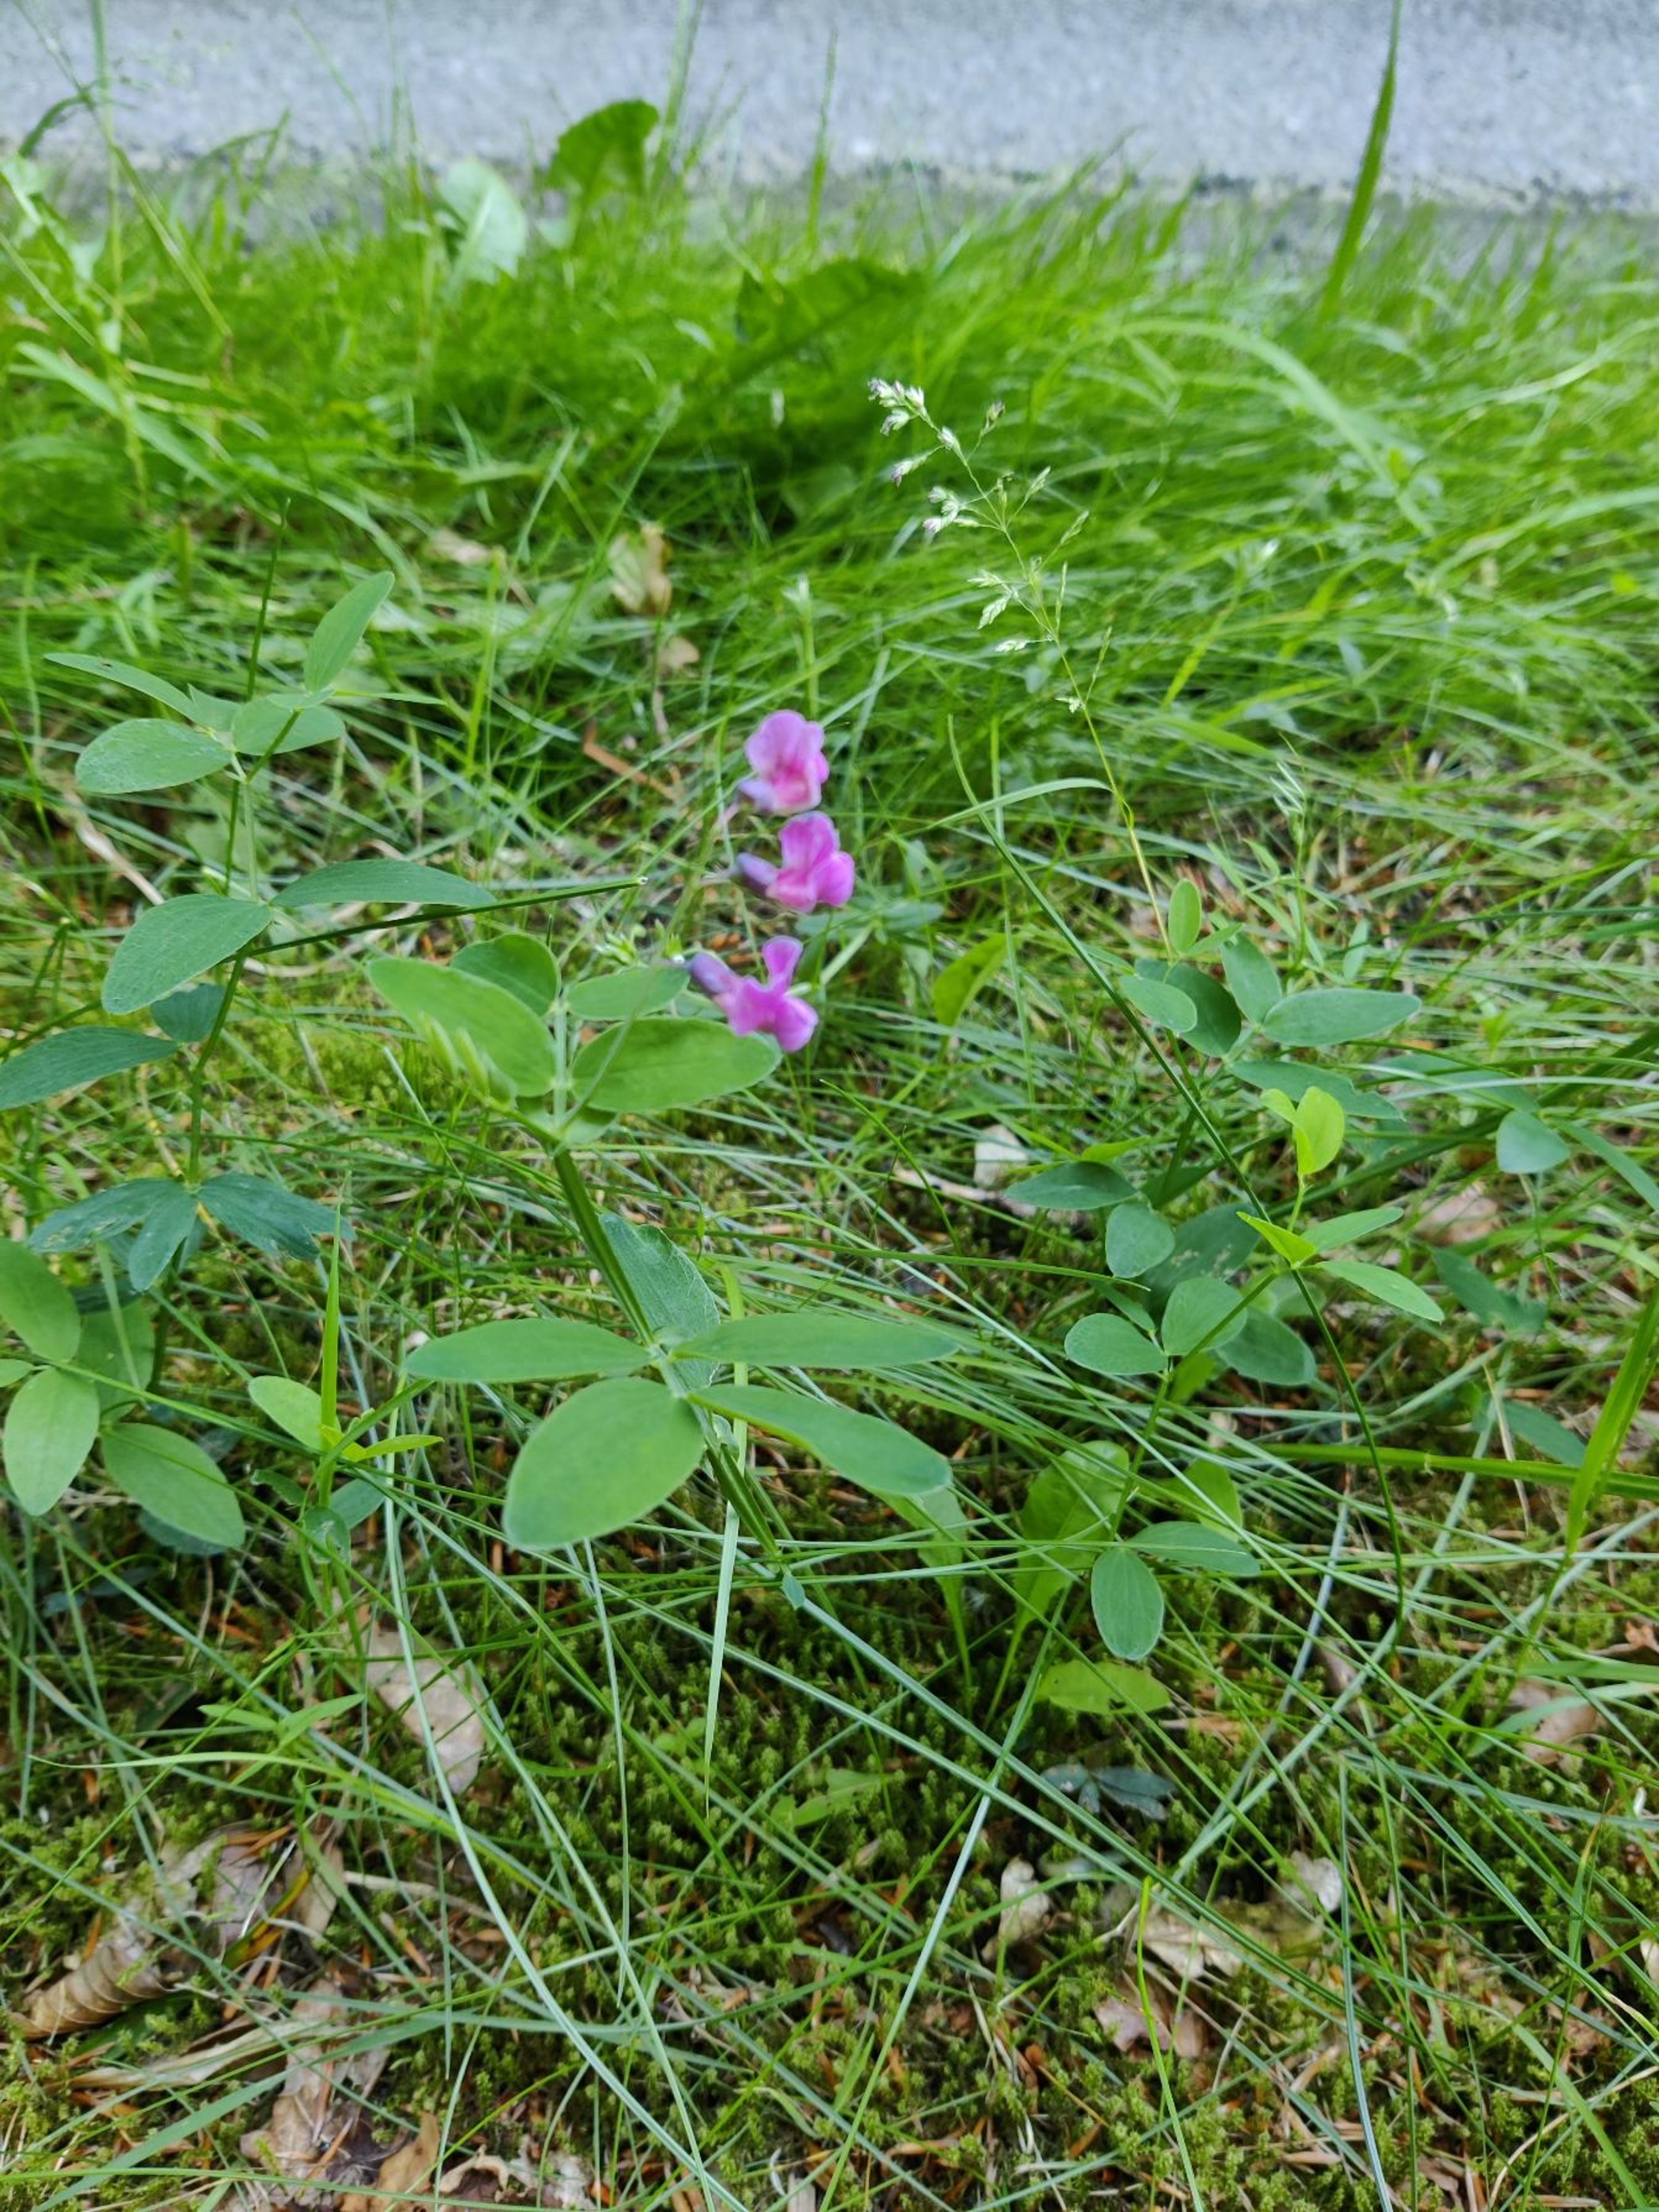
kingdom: Plantae
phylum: Tracheophyta
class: Magnoliopsida
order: Fabales
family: Fabaceae
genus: Lathyrus
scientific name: Lathyrus linifolius
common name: Krat-fladbælg
